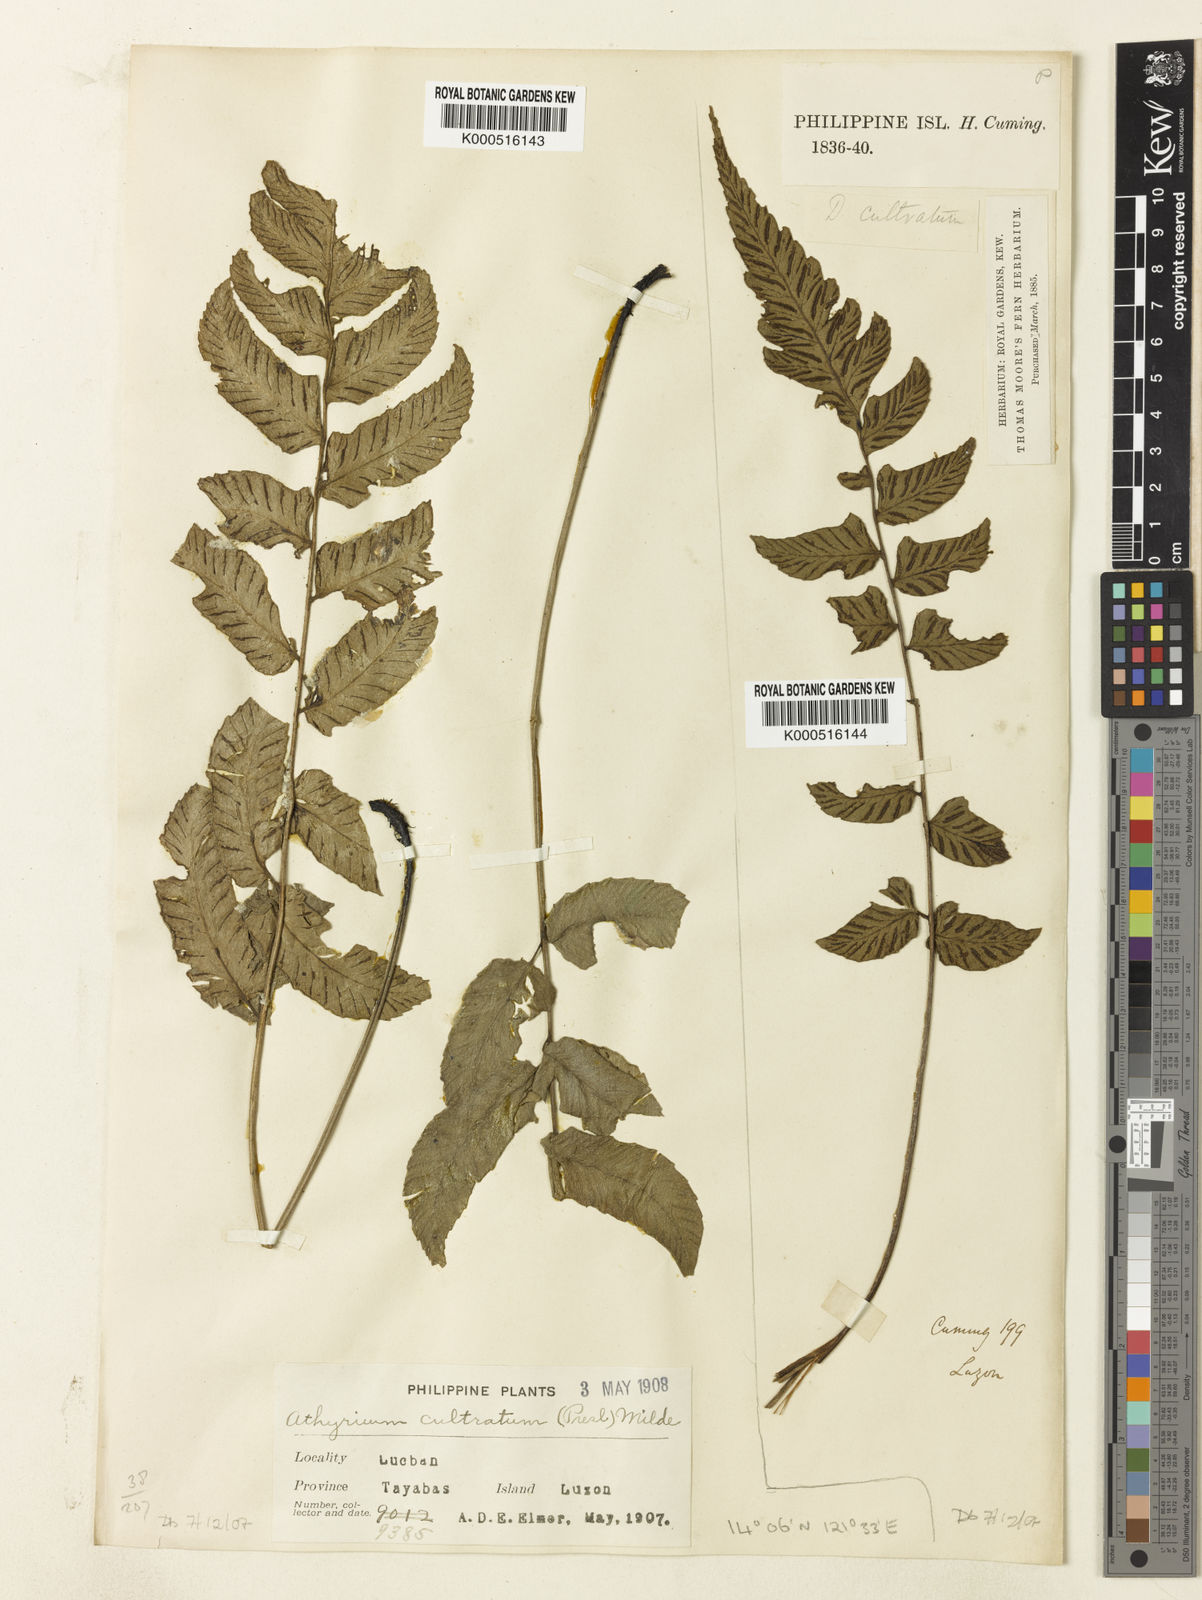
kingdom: Plantae
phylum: Tracheophyta
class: Polypodiopsida
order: Polypodiales
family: Athyriaceae
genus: Diplazium
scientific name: Diplazium cultratum
